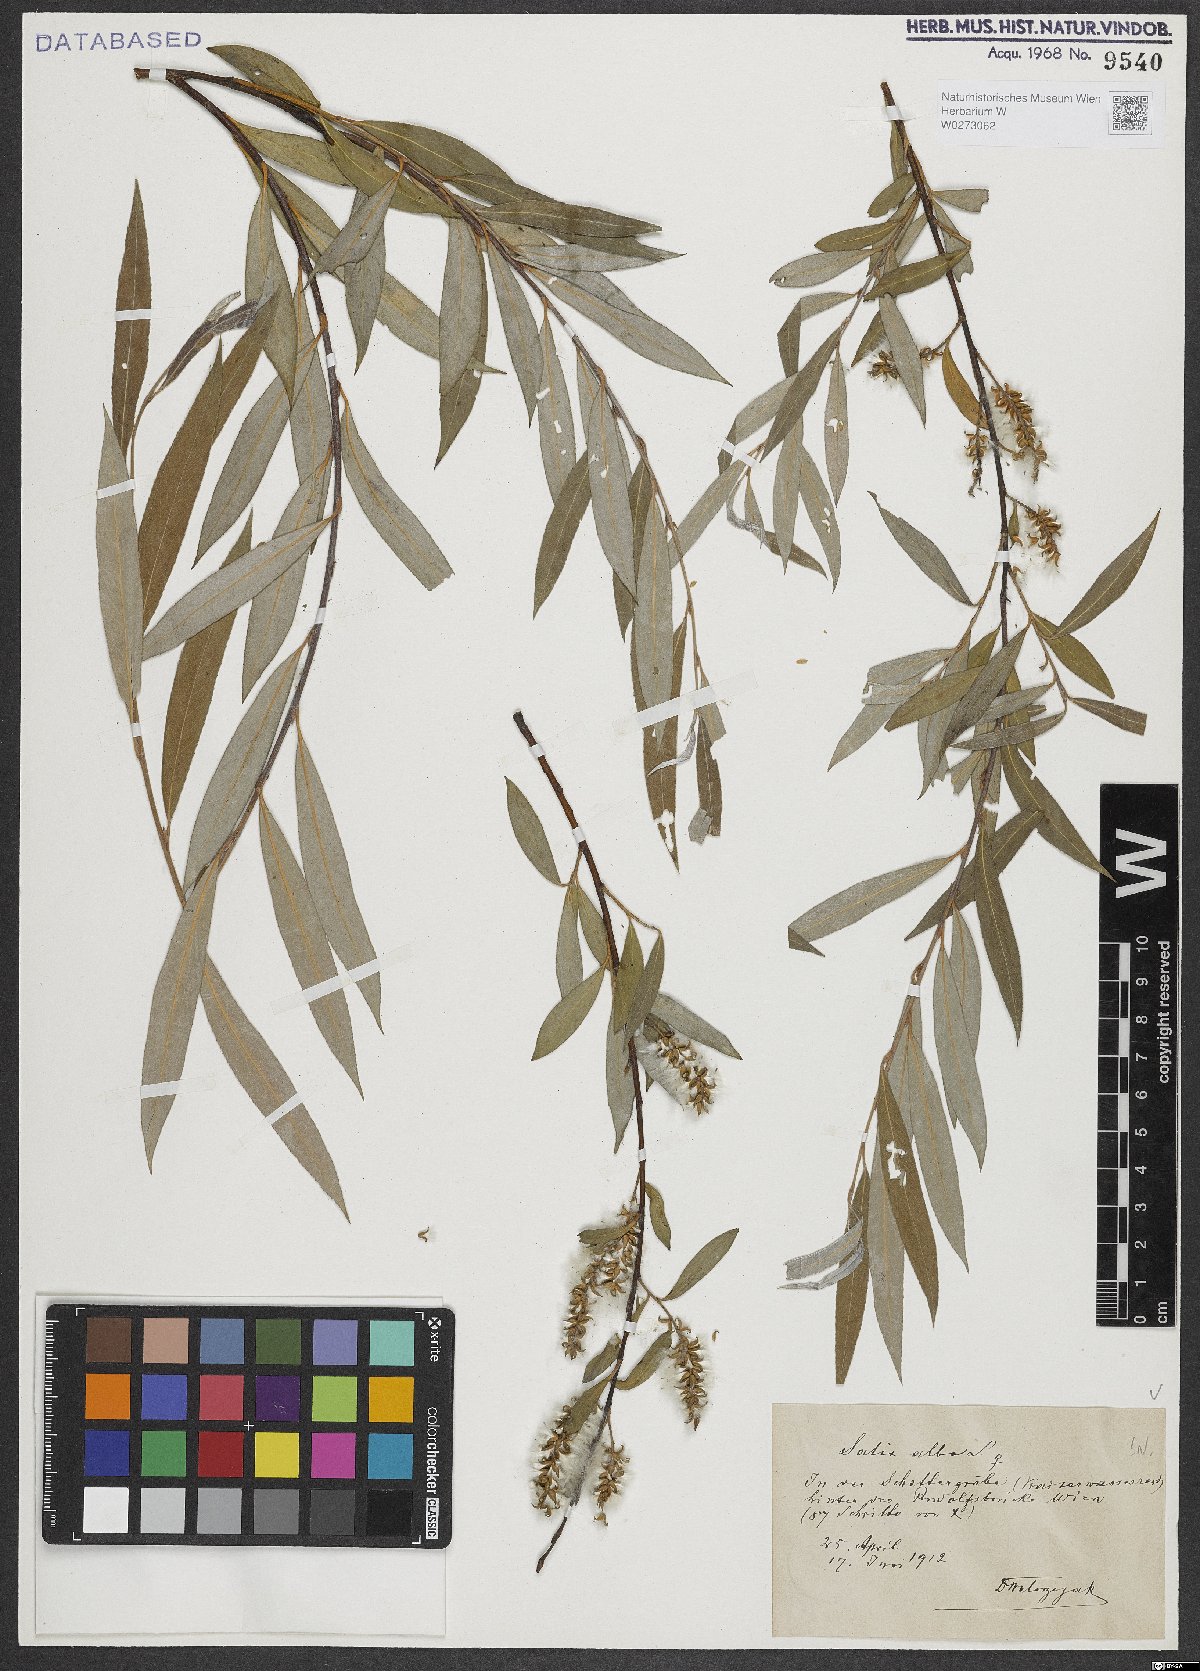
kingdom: Plantae
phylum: Tracheophyta
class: Magnoliopsida
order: Malpighiales
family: Salicaceae
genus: Salix
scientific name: Salix alba
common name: White willow
